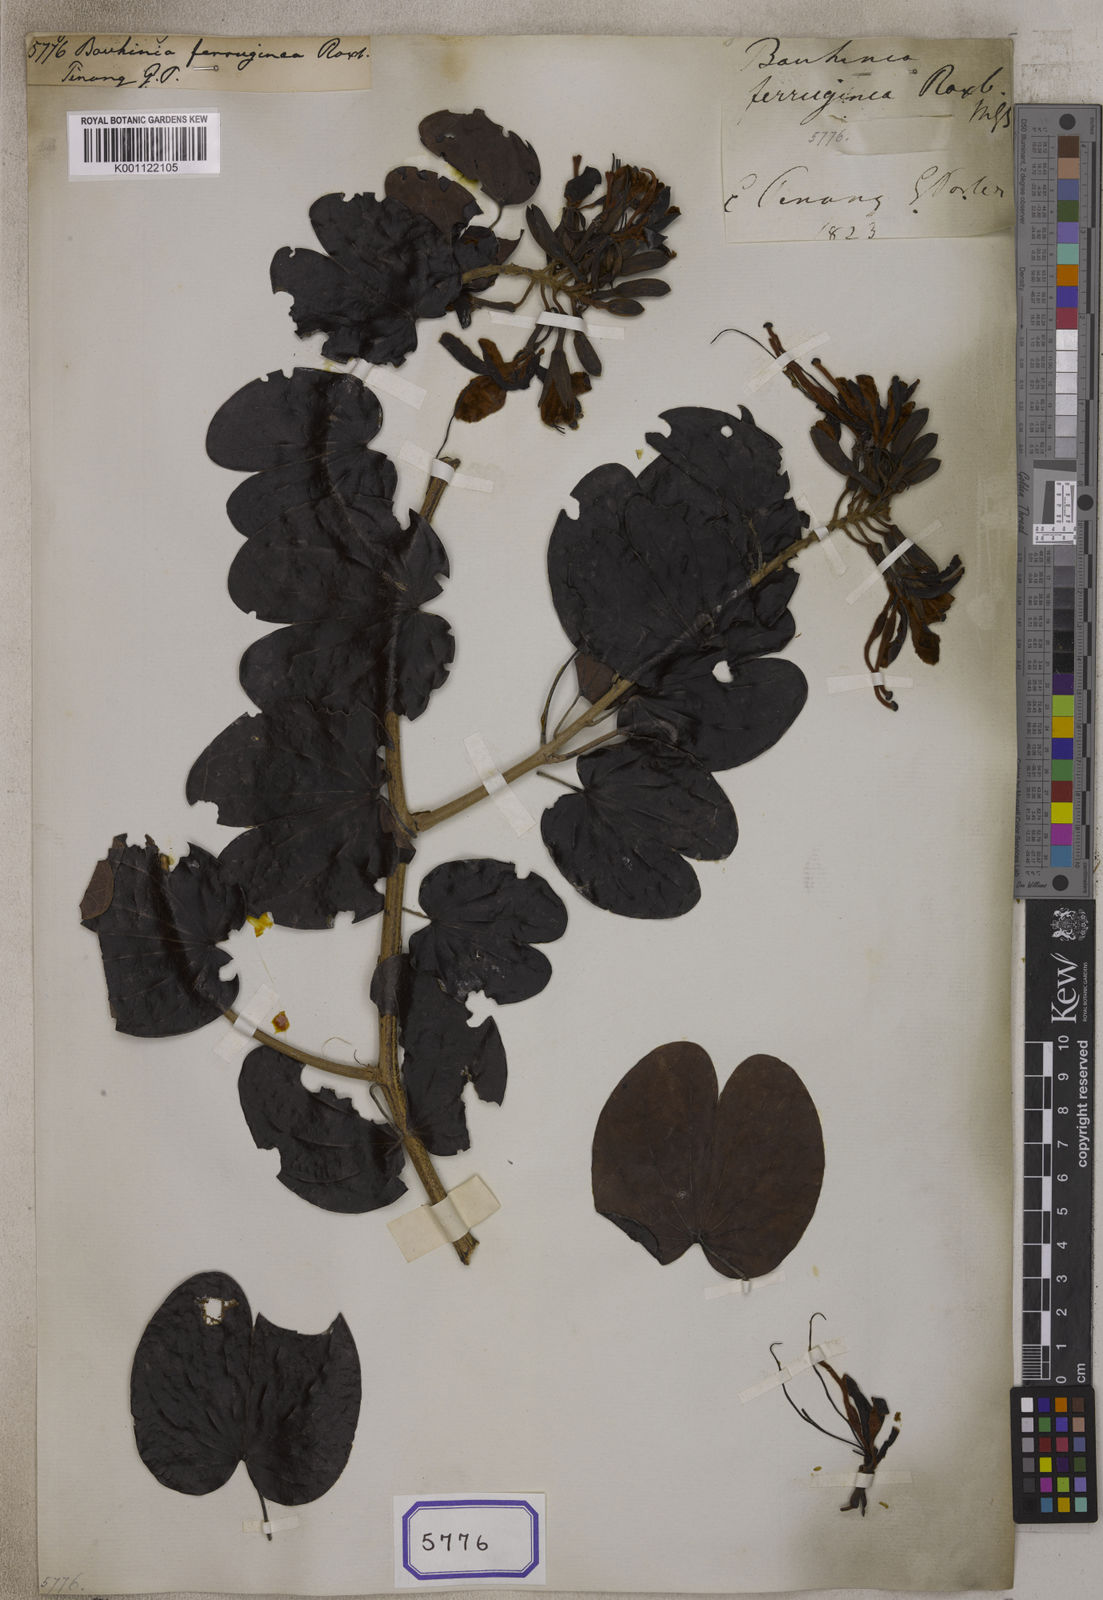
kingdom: Plantae
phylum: Tracheophyta
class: Magnoliopsida
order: Fabales
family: Fabaceae
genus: Phanera
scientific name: Phanera ferruginea
